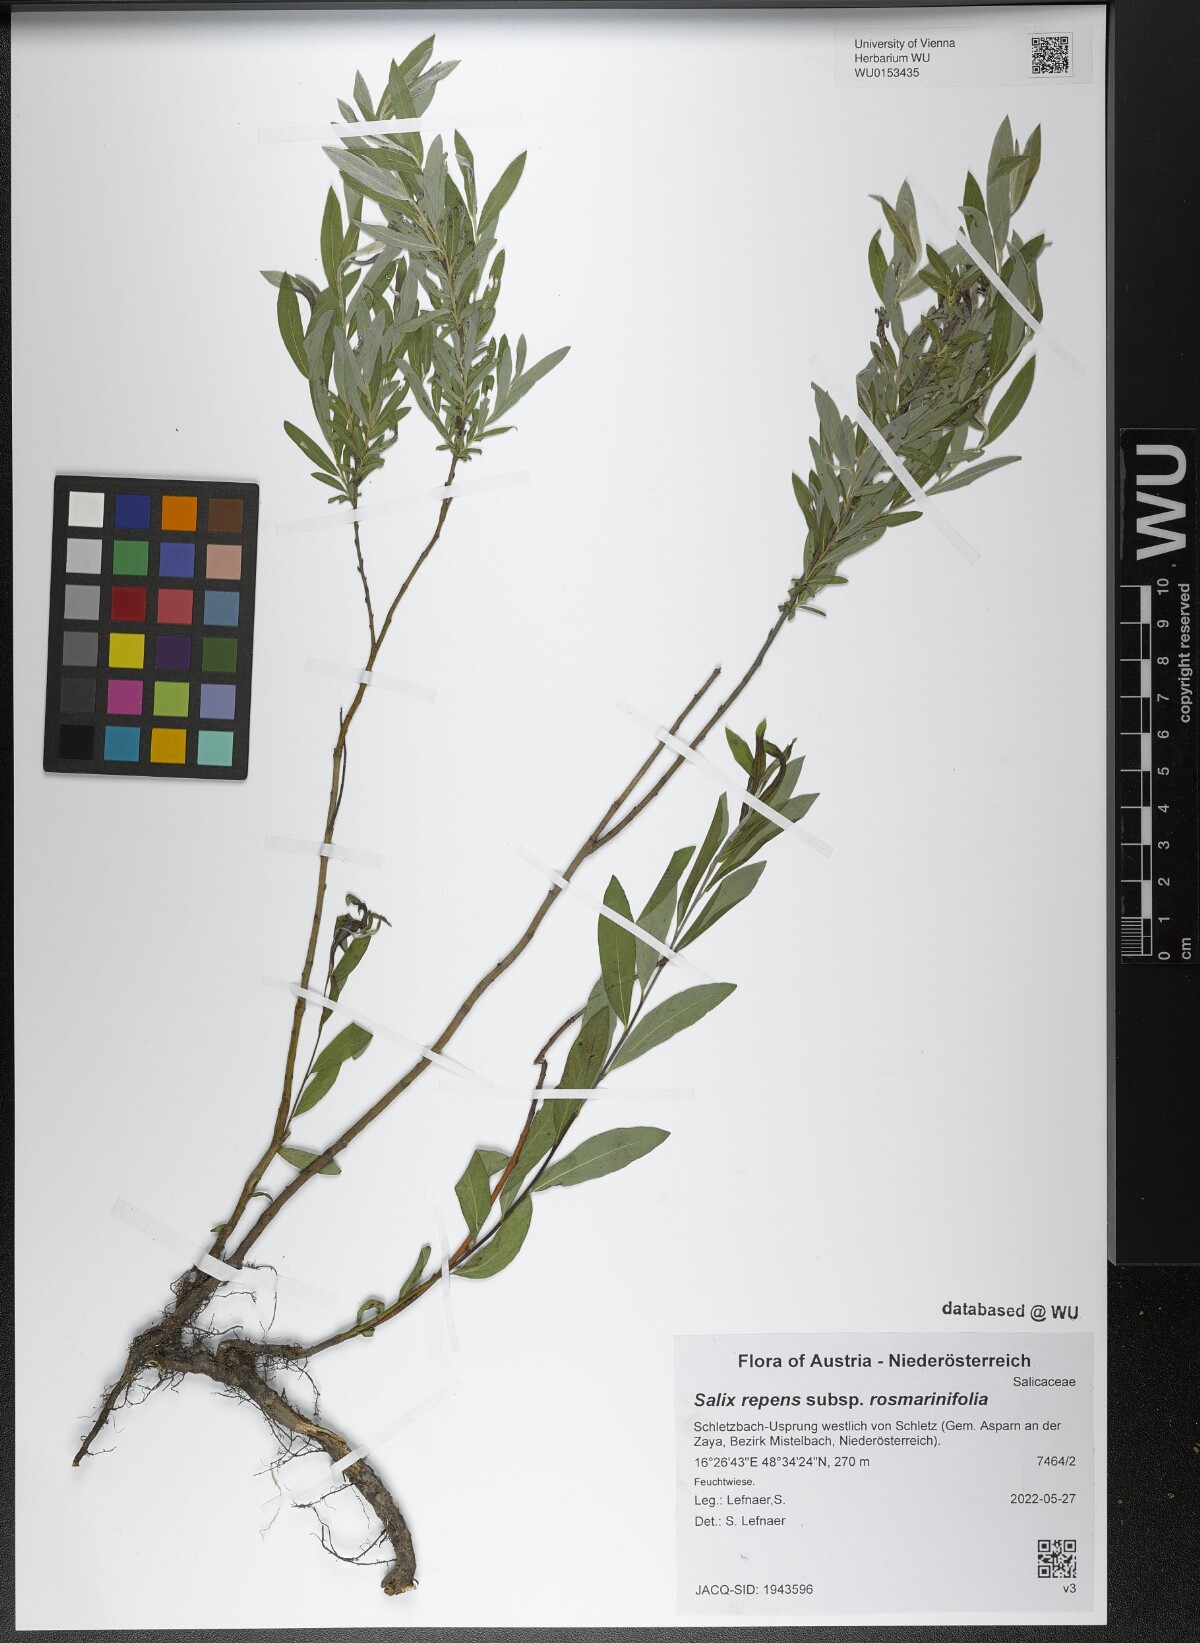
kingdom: Plantae
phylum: Tracheophyta
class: Magnoliopsida
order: Malpighiales
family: Salicaceae
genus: Salix
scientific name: Salix repens
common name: Creeping willow
